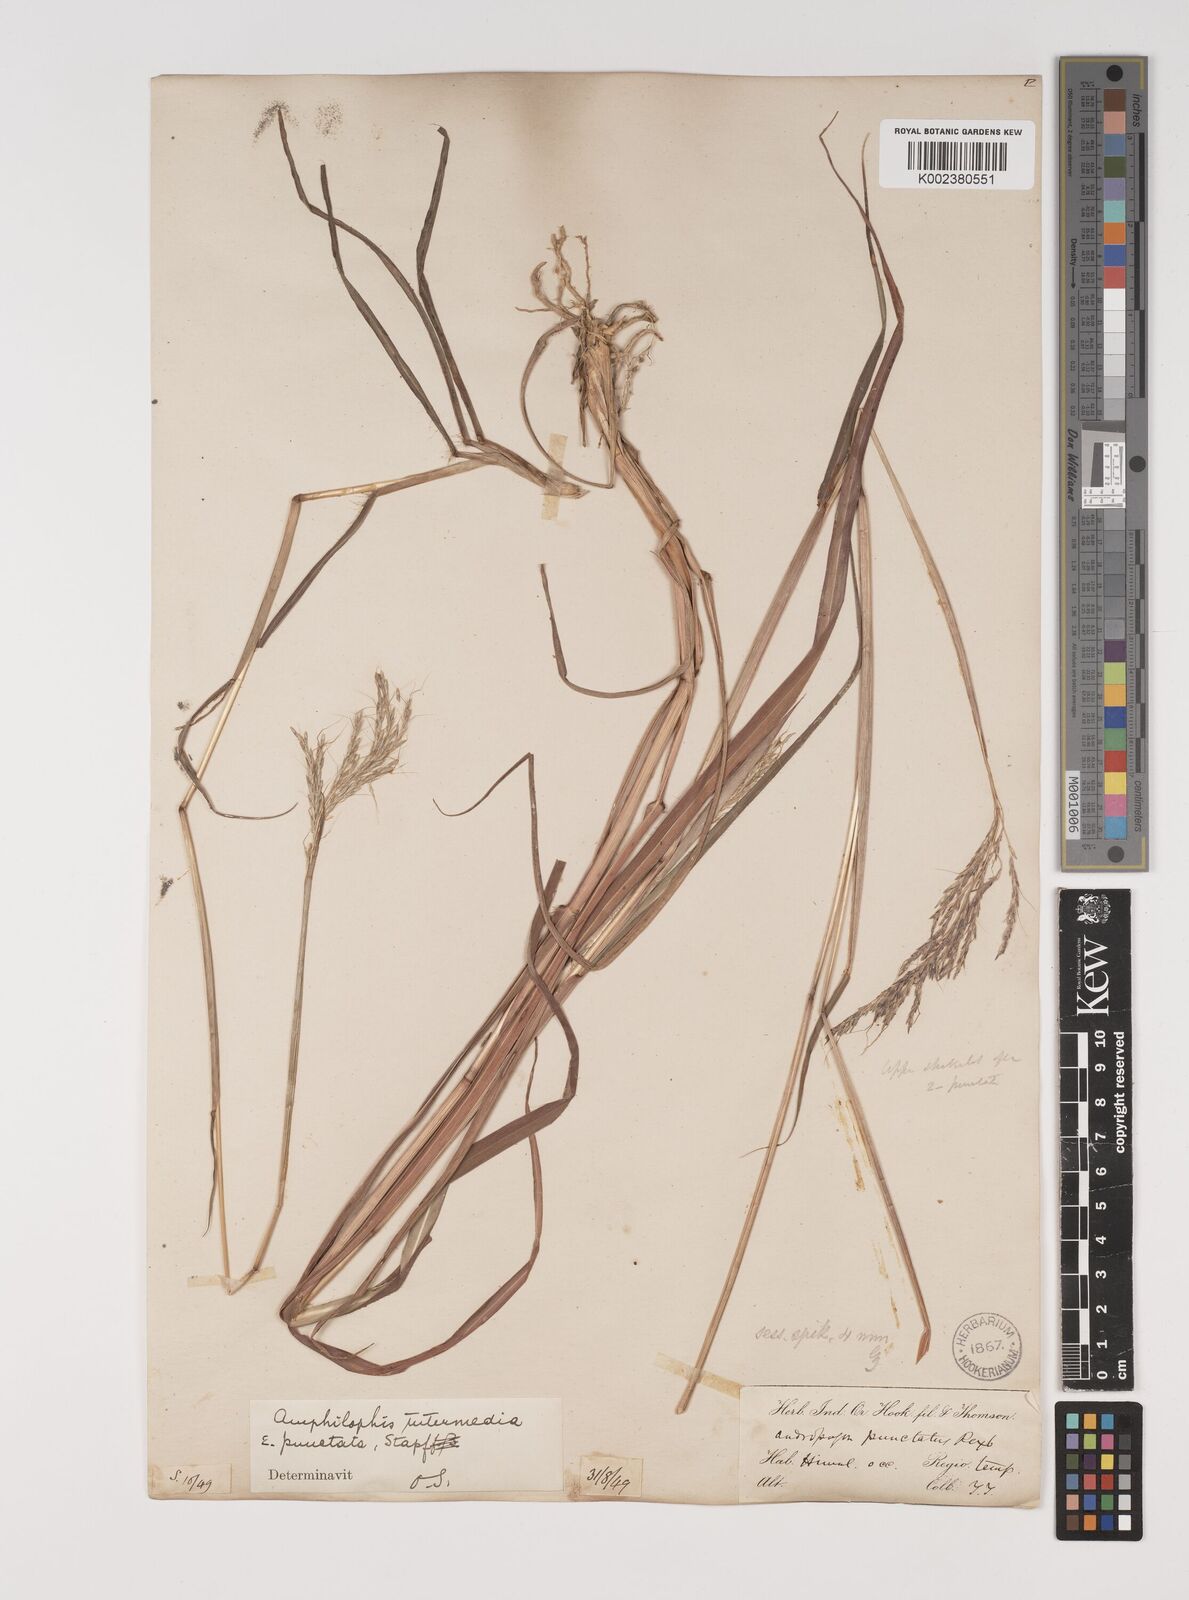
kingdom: Plantae
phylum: Tracheophyta
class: Liliopsida
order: Poales
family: Poaceae
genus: Bothriochloa
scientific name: Bothriochloa bladhii
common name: Caucasian bluestem
